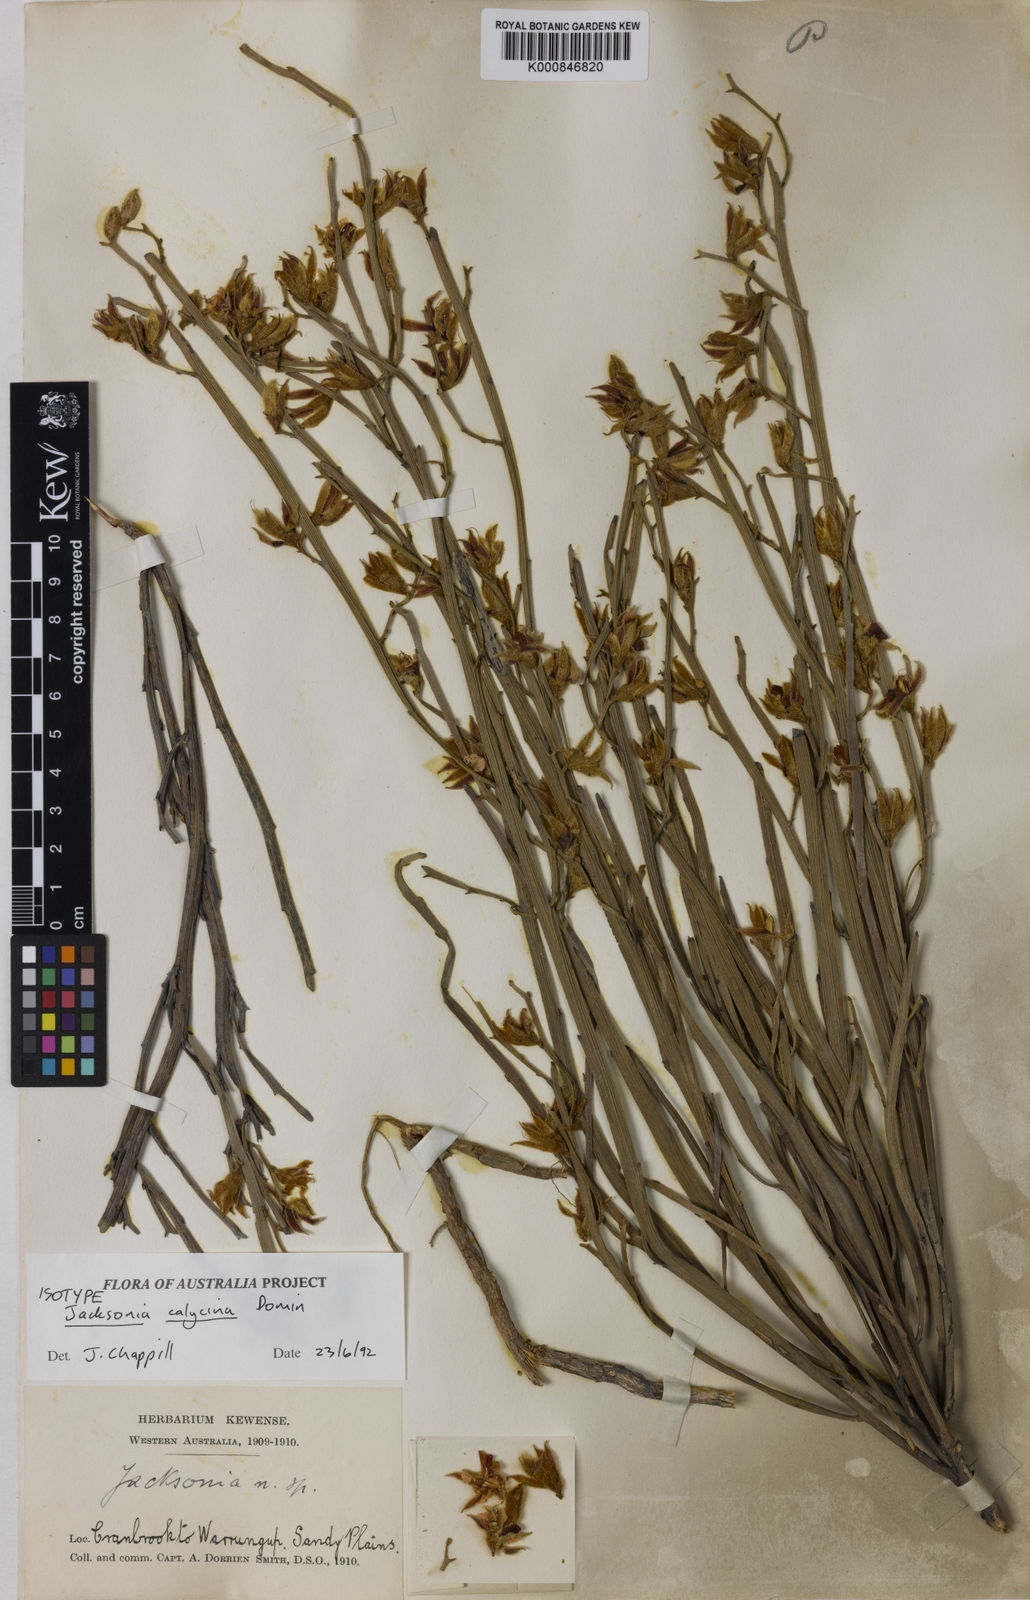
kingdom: Plantae
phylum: Tracheophyta
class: Magnoliopsida
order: Fabales
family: Fabaceae
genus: Jacksonia
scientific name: Jacksonia calycina
